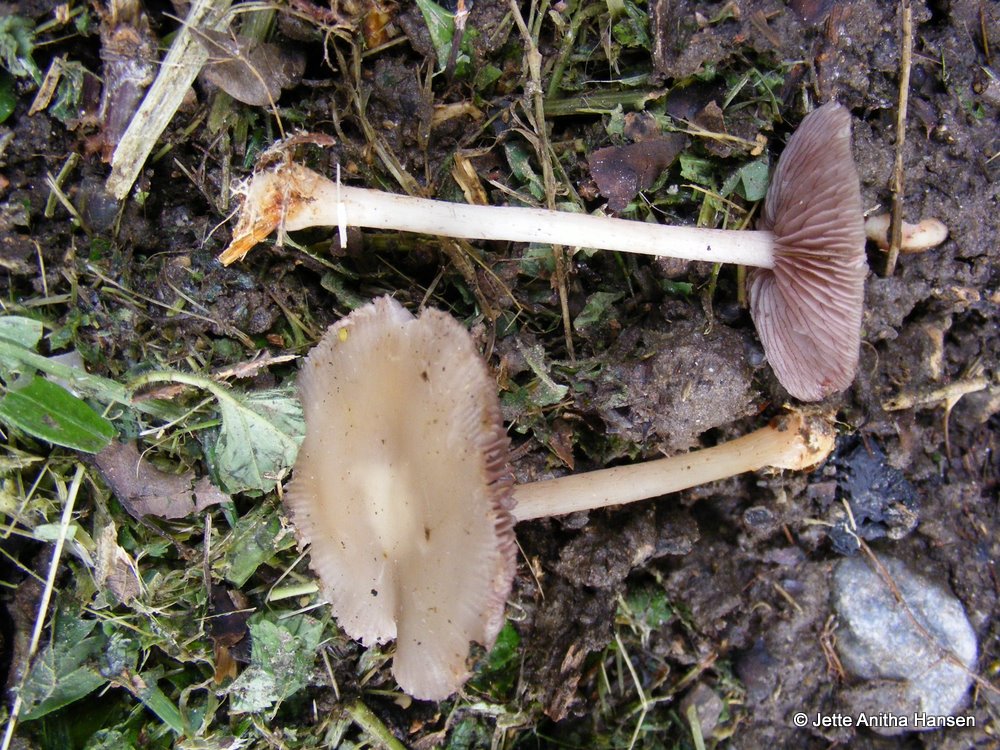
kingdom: Fungi
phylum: Basidiomycota
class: Agaricomycetes
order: Agaricales
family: Mycenaceae
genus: Mycena
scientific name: Mycena pelianthina
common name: mørkbladet huesvamp
